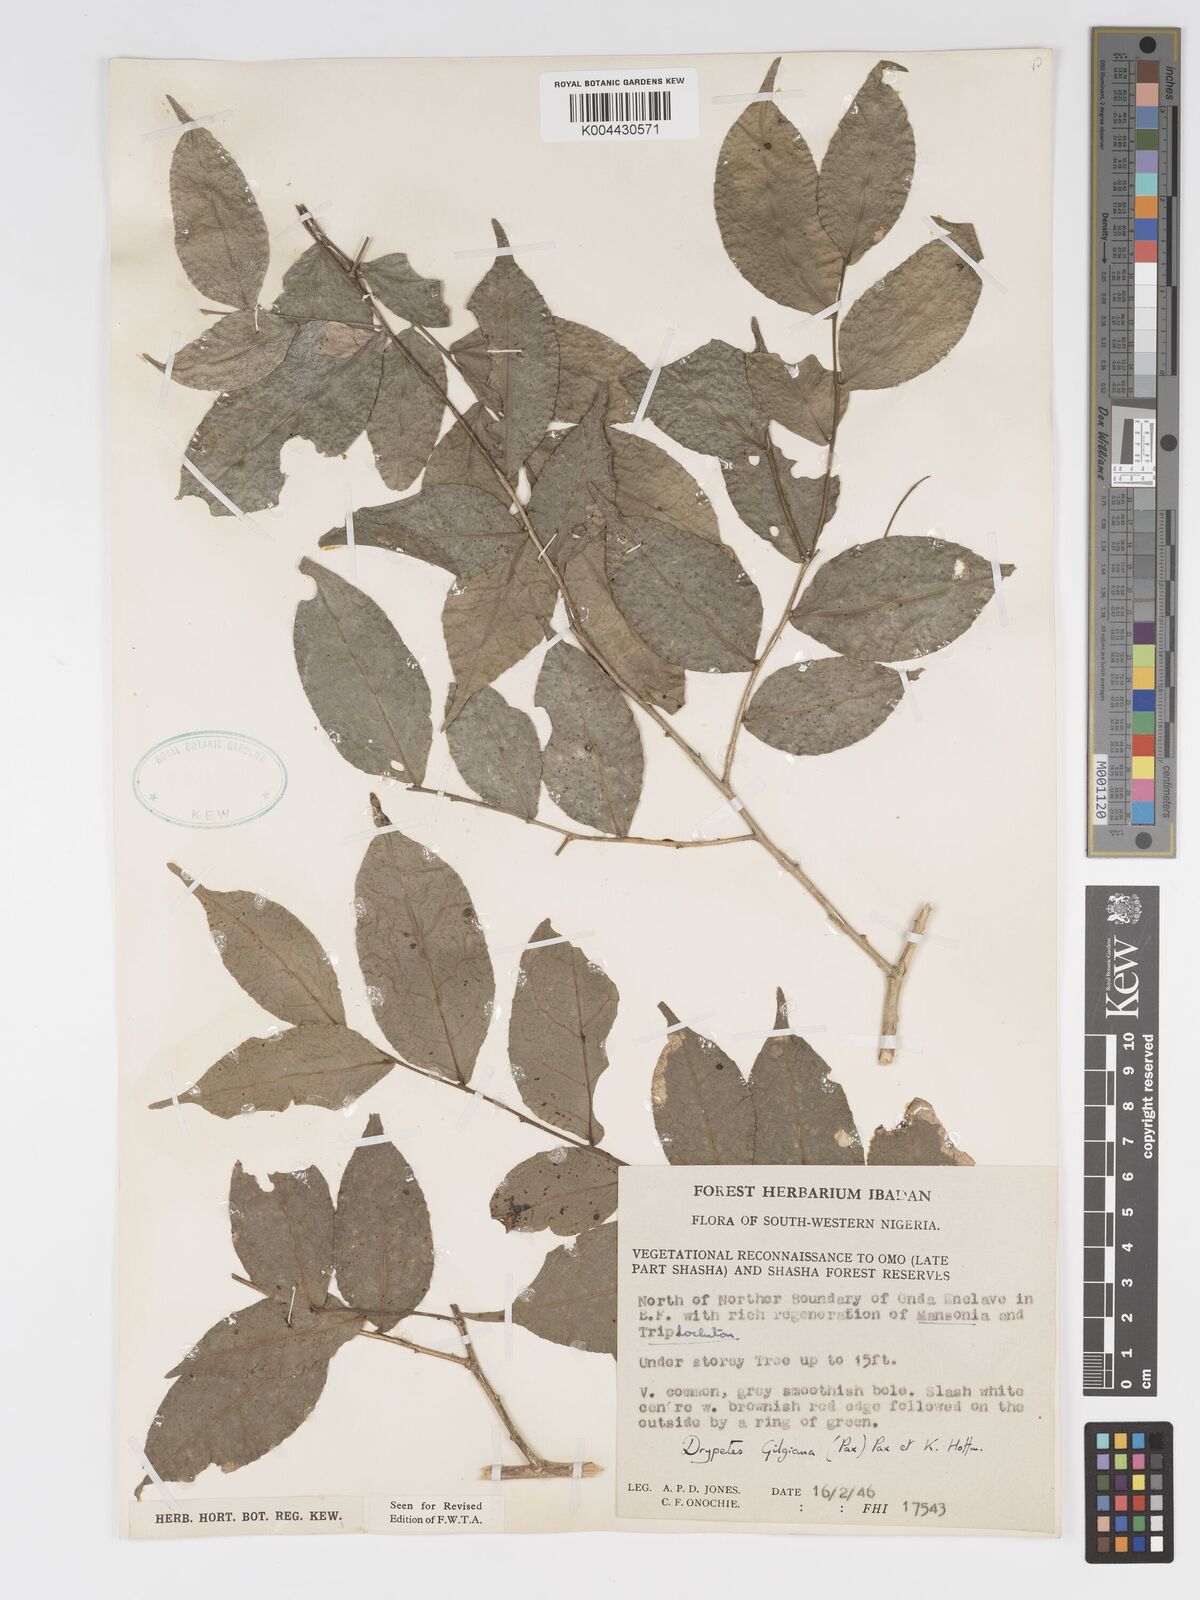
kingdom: Plantae
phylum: Tracheophyta
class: Magnoliopsida
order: Malpighiales
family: Putranjivaceae
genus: Drypetes
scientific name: Drypetes gilgiana
